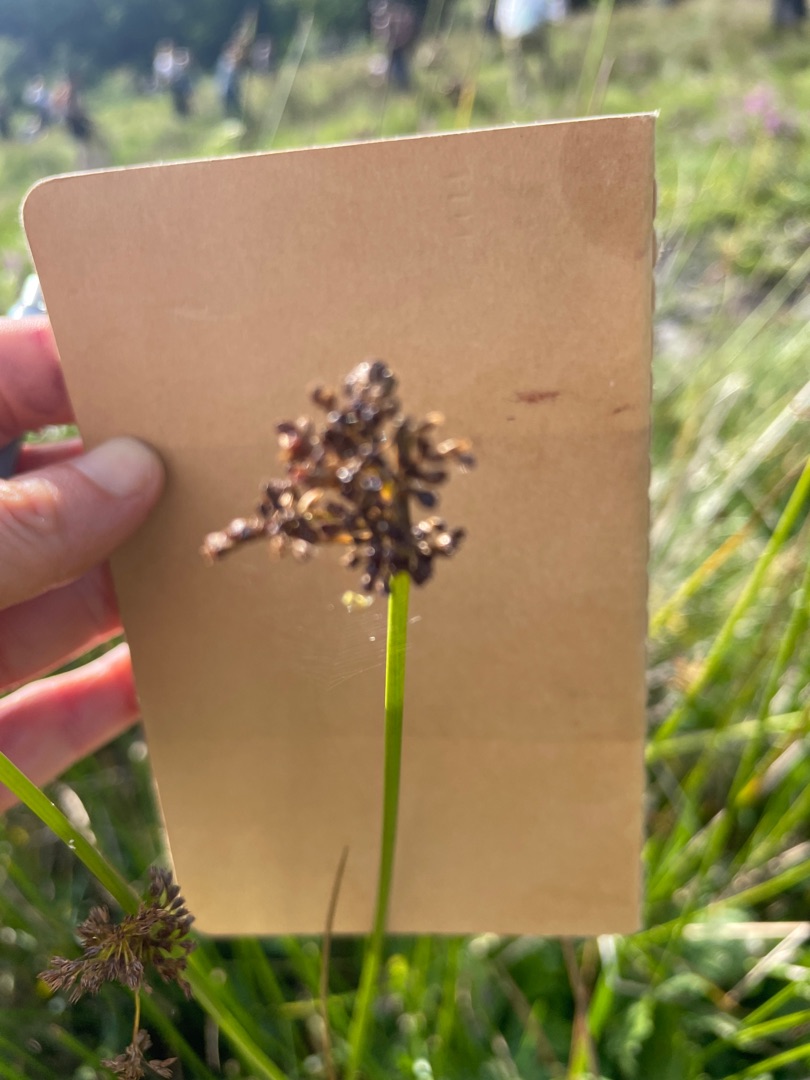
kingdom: Plantae
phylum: Tracheophyta
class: Liliopsida
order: Poales
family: Juncaceae
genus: Juncus
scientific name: Juncus effusus
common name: Lyse-siv
